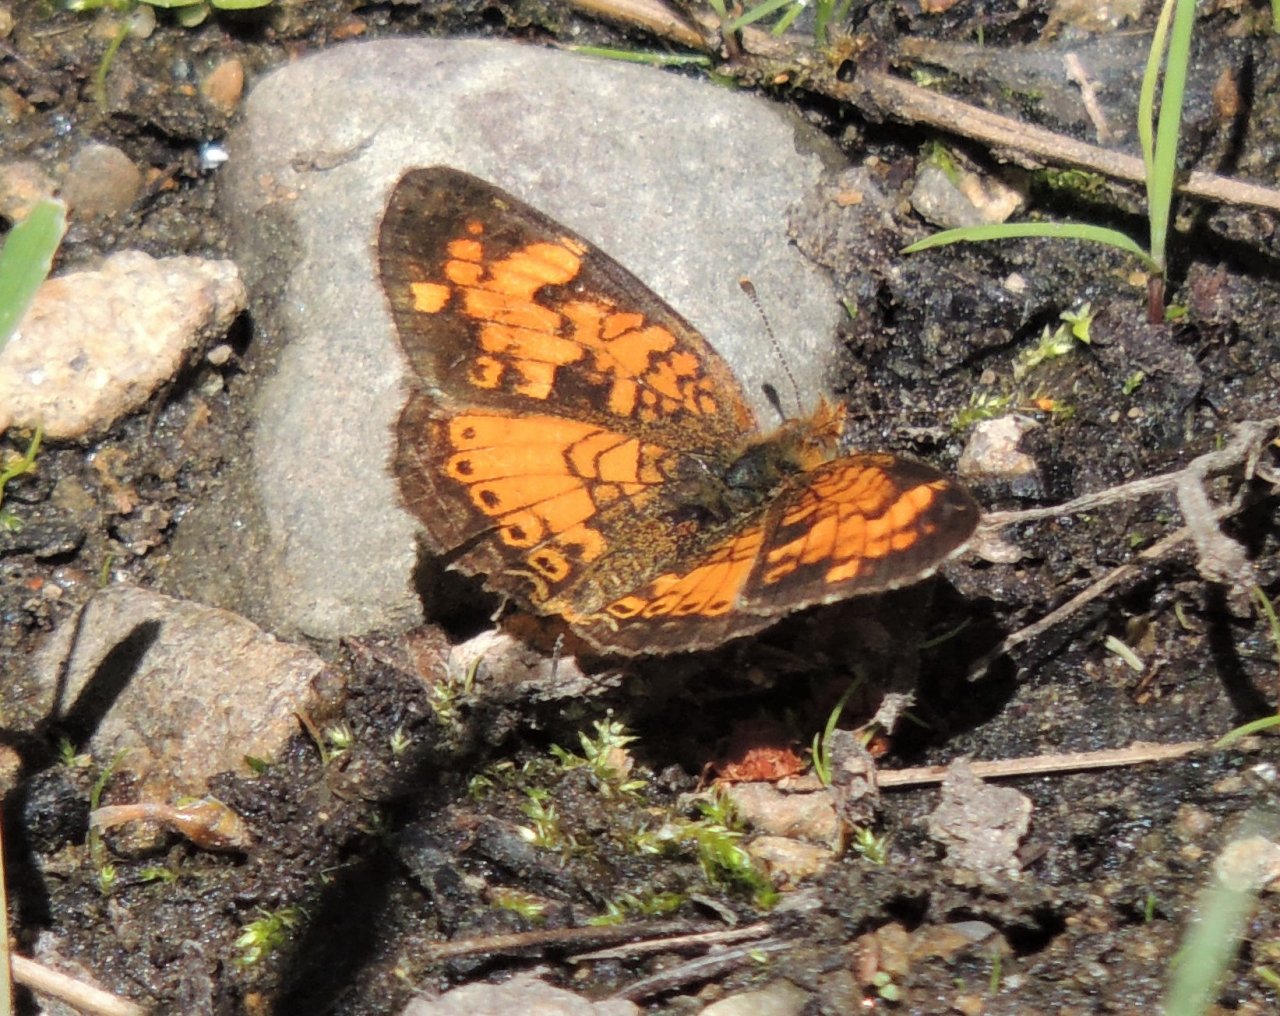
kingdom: Animalia
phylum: Arthropoda
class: Insecta
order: Lepidoptera
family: Nymphalidae
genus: Phyciodes
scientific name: Phyciodes tharos
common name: Northern Crescent
